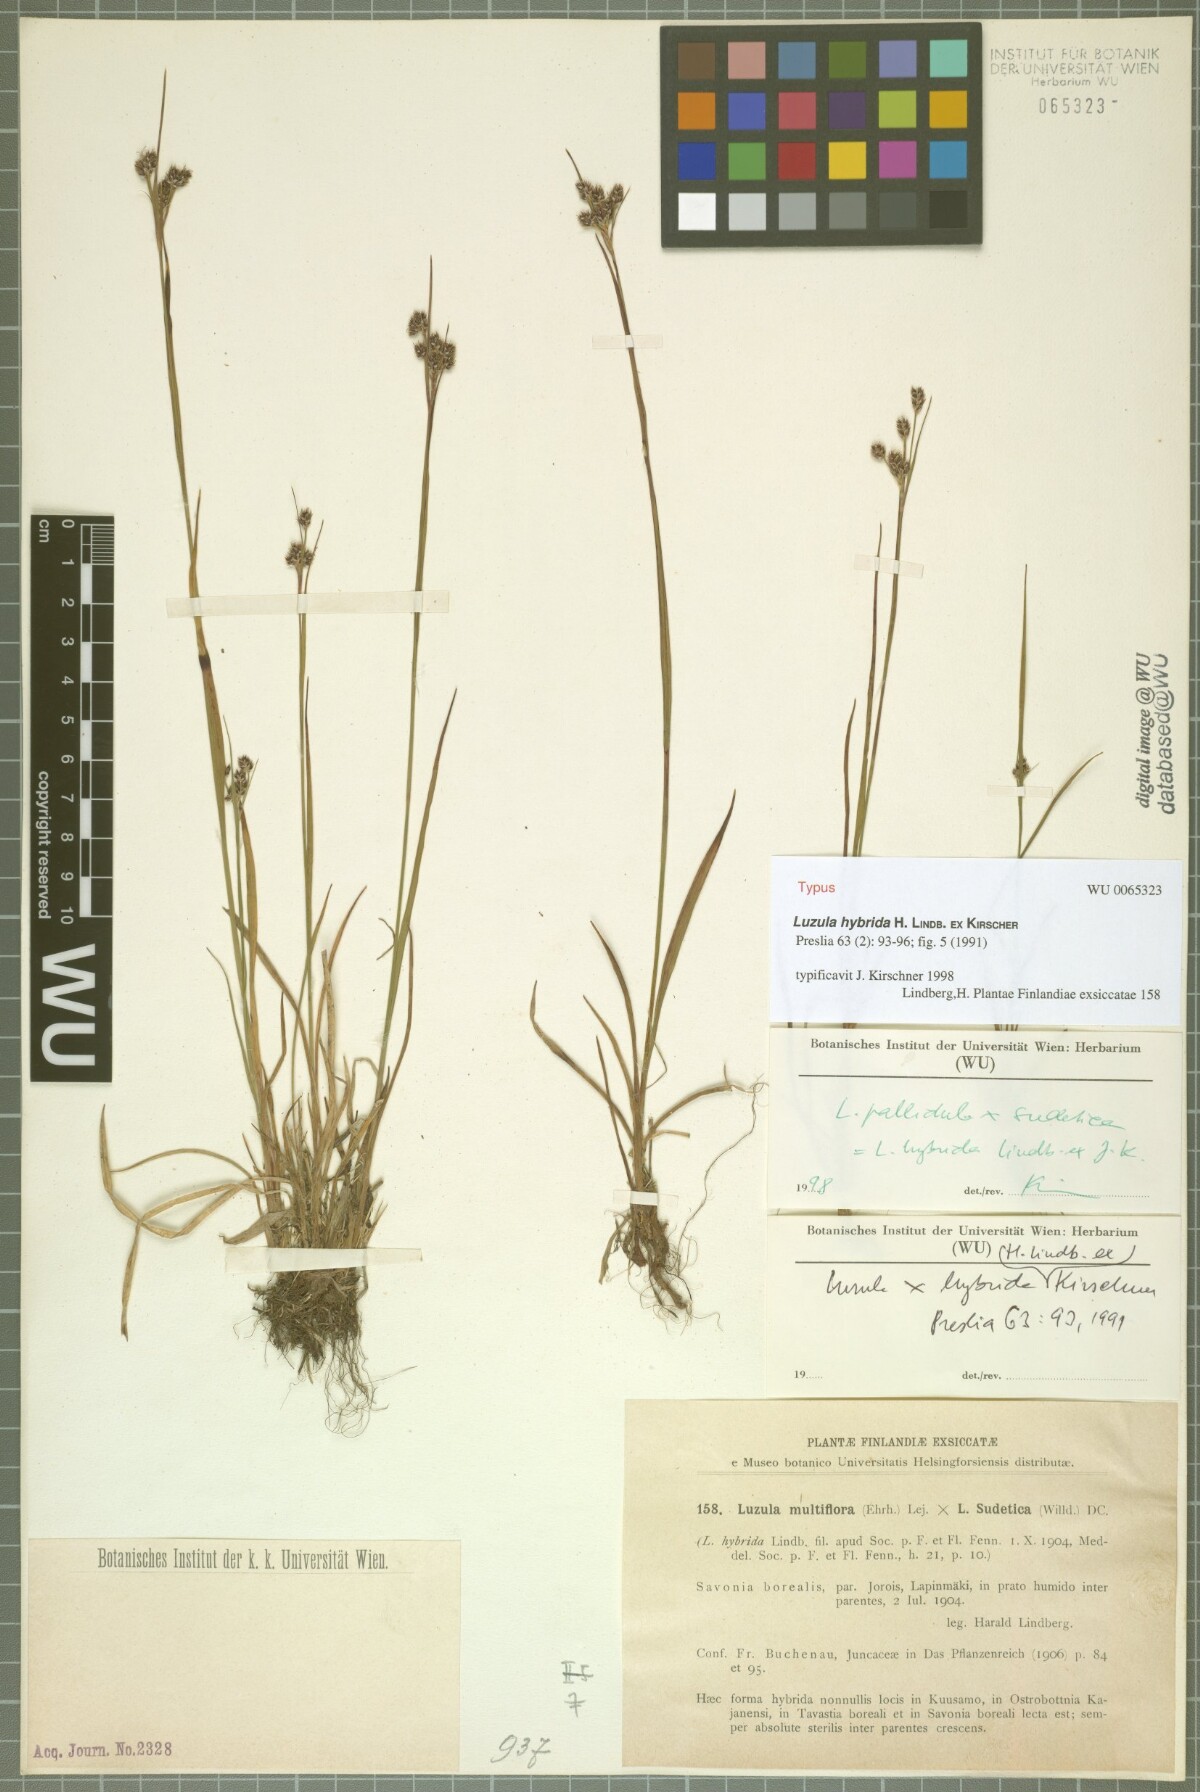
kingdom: Plantae
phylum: Tracheophyta
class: Liliopsida
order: Poales
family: Juncaceae
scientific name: Juncaceae
